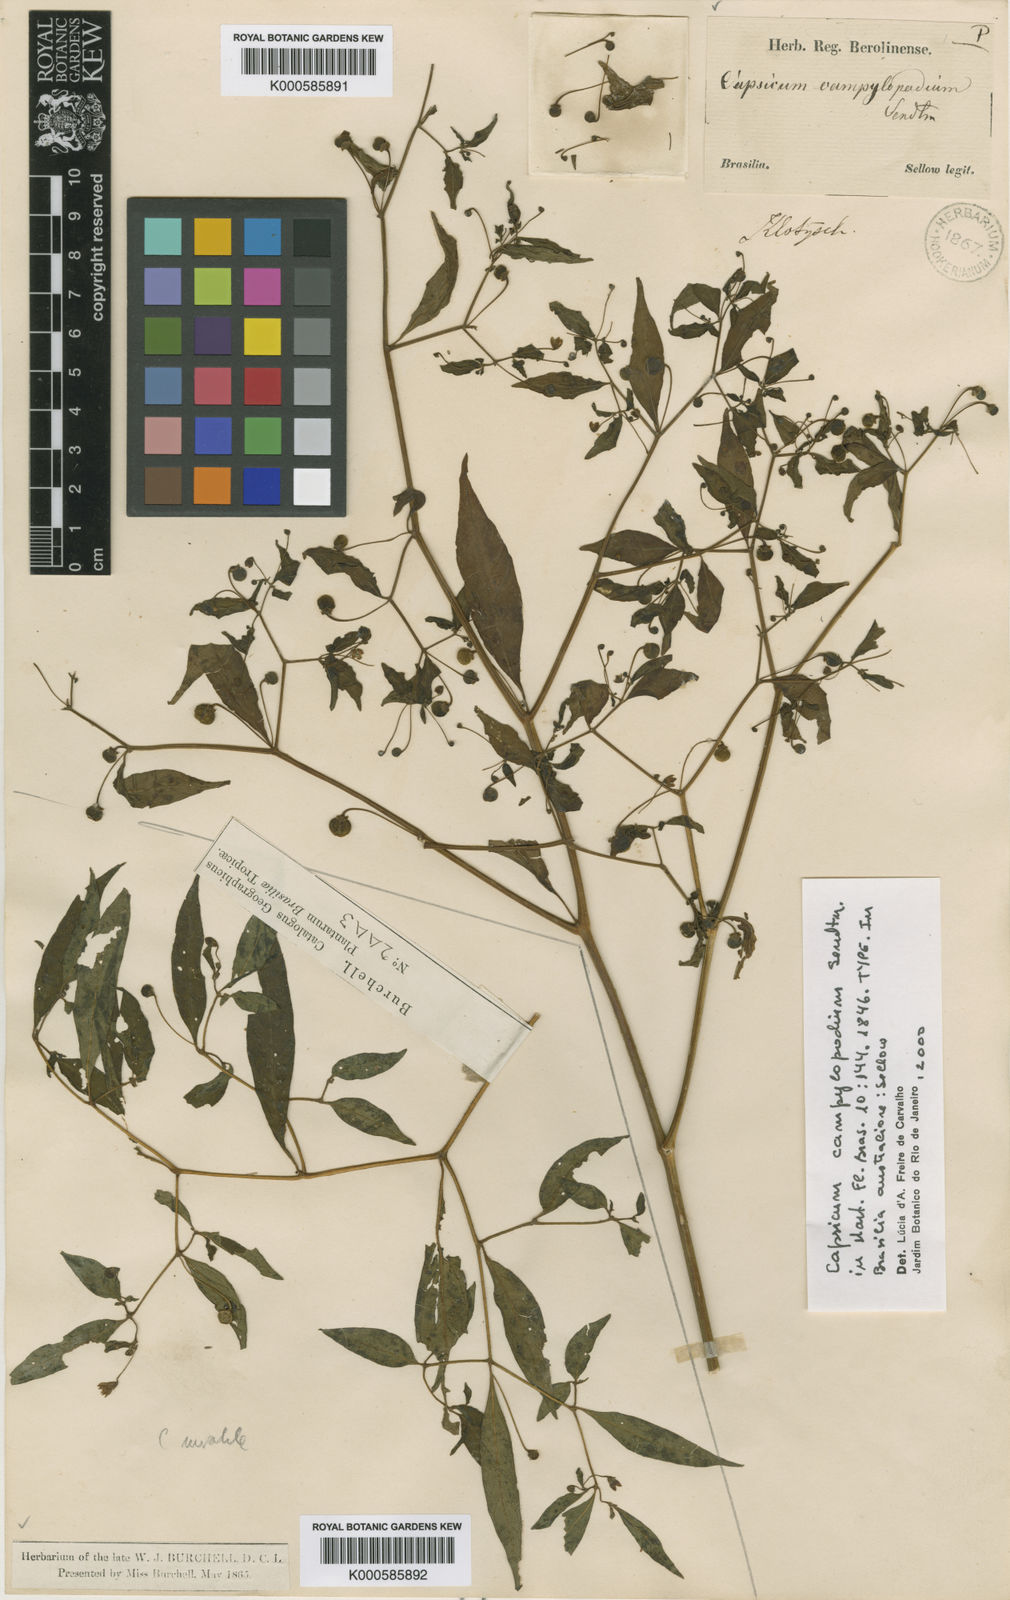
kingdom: Plantae
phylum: Tracheophyta
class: Magnoliopsida
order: Solanales
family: Solanaceae
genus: Capsicum
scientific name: Capsicum campylopodium
